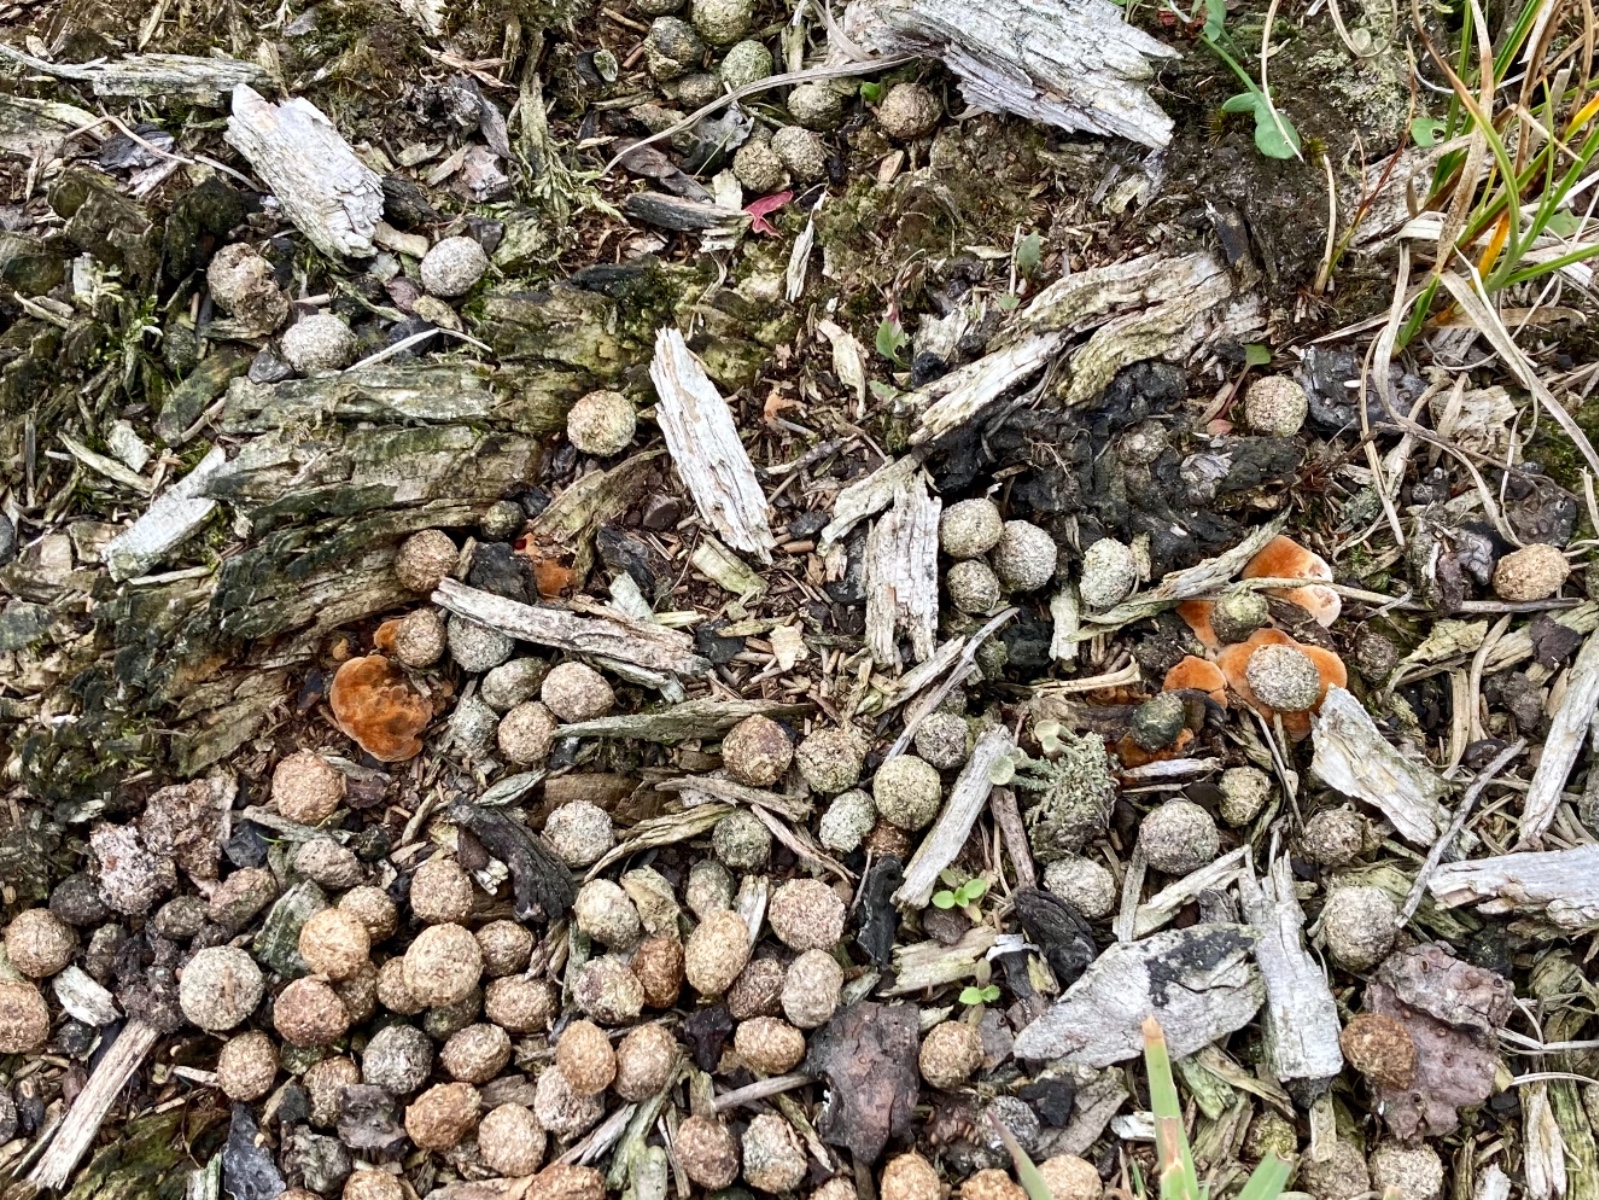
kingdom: Fungi
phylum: Basidiomycota
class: Agaricomycetes
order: Polyporales
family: Ischnodermataceae
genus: Ischnoderma
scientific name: Ischnoderma benzoinum
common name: gran-tjæreporesvamp
